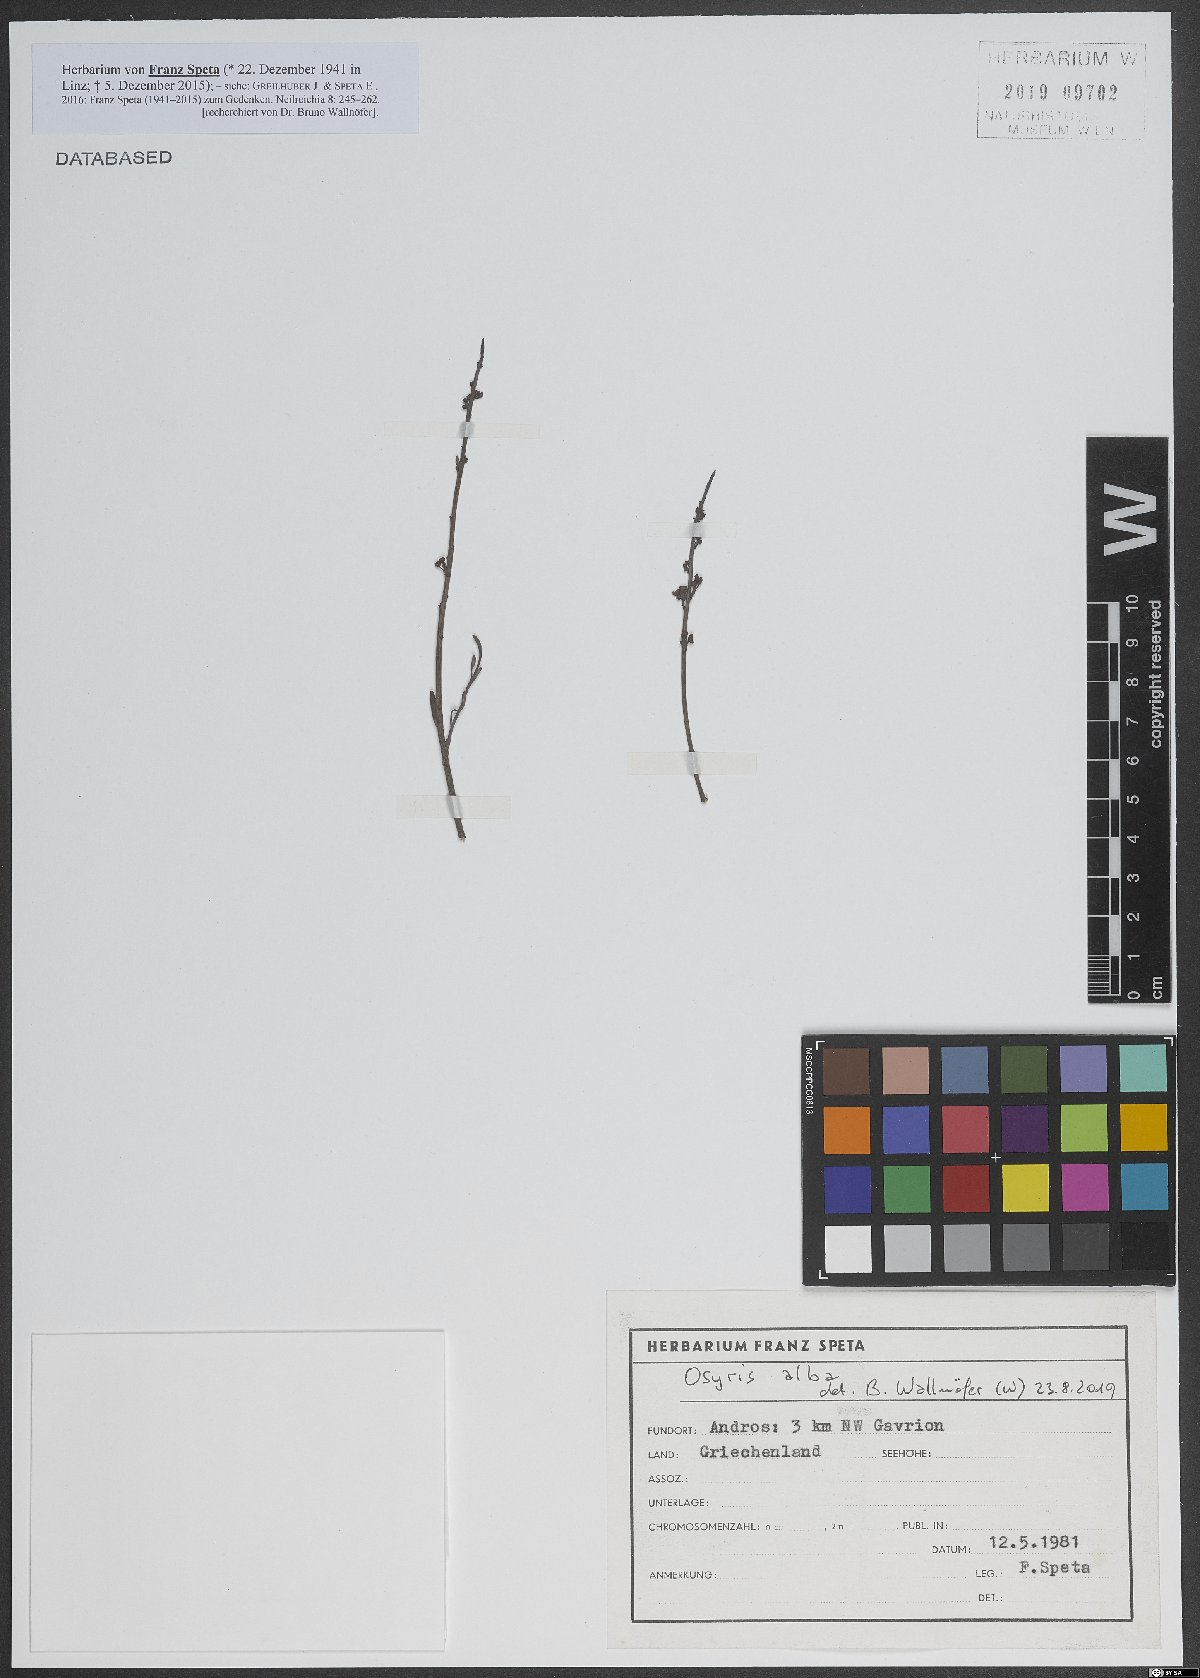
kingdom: Plantae
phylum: Tracheophyta
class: Magnoliopsida
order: Santalales
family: Santalaceae
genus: Osyris
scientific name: Osyris alba
